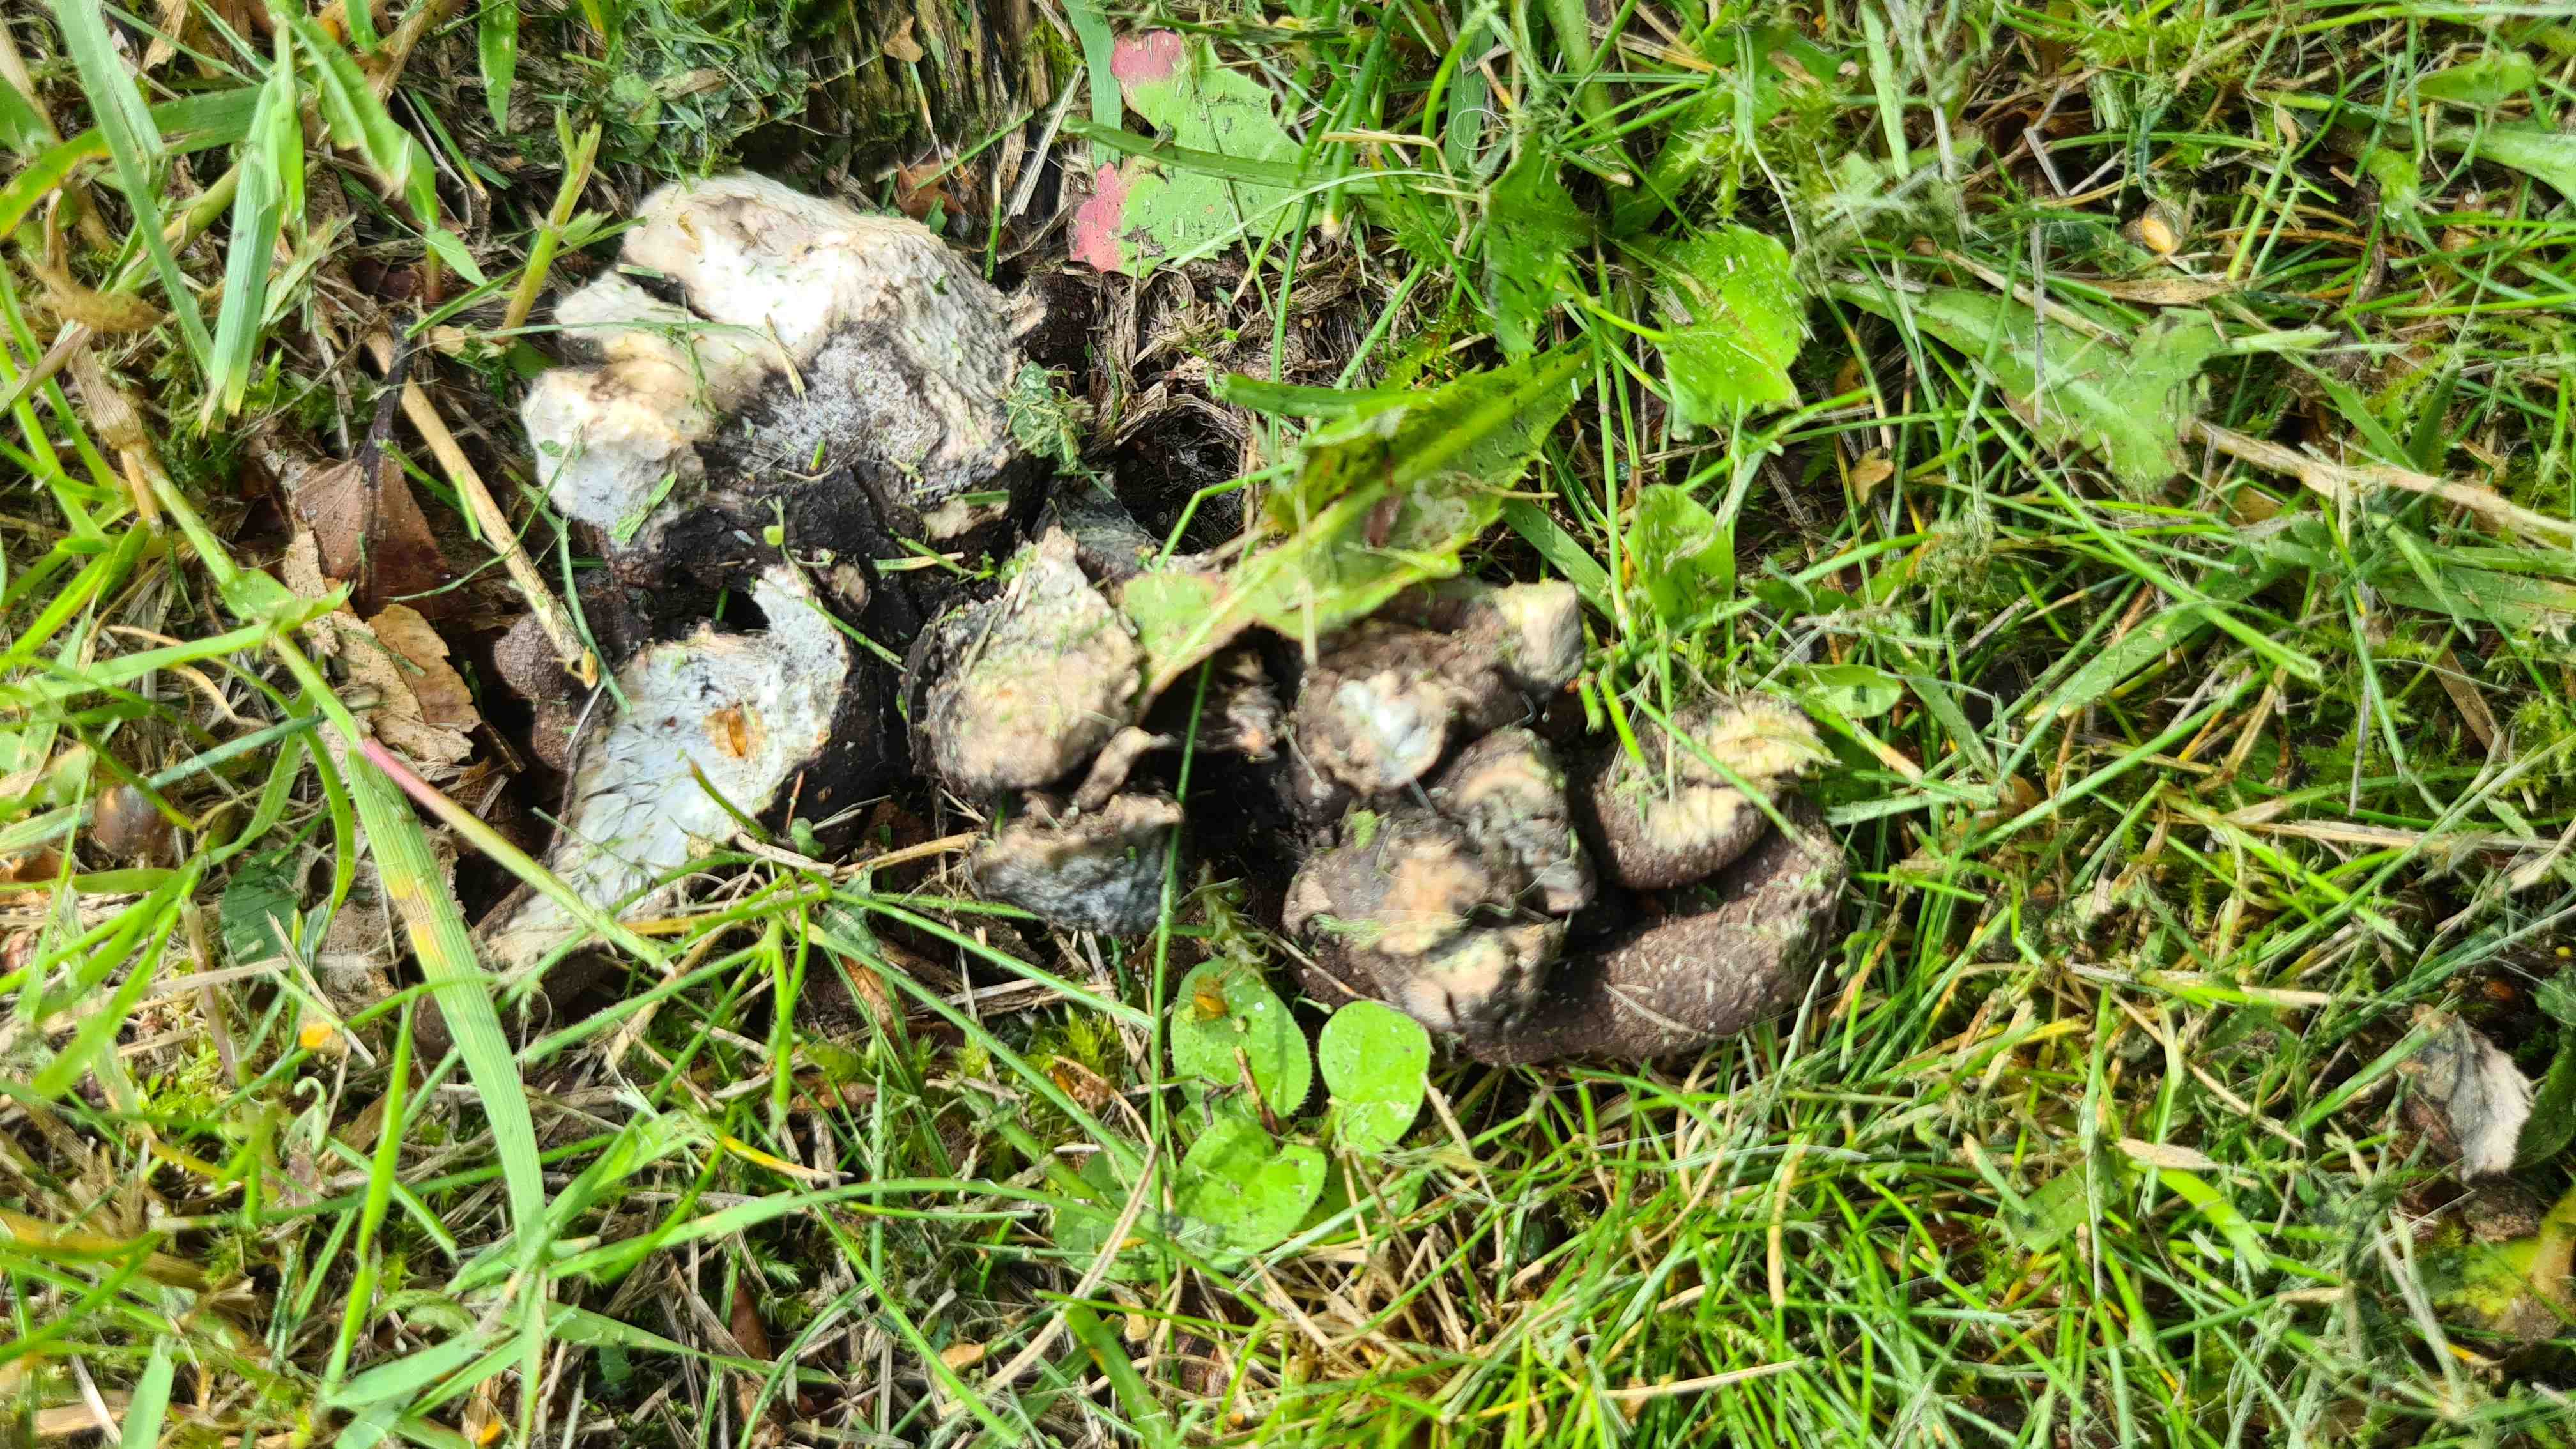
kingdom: Fungi
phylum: Ascomycota
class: Sordariomycetes
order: Xylariales
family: Xylariaceae
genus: Xylaria
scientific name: Xylaria polymorpha
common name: kølle-stødsvamp
